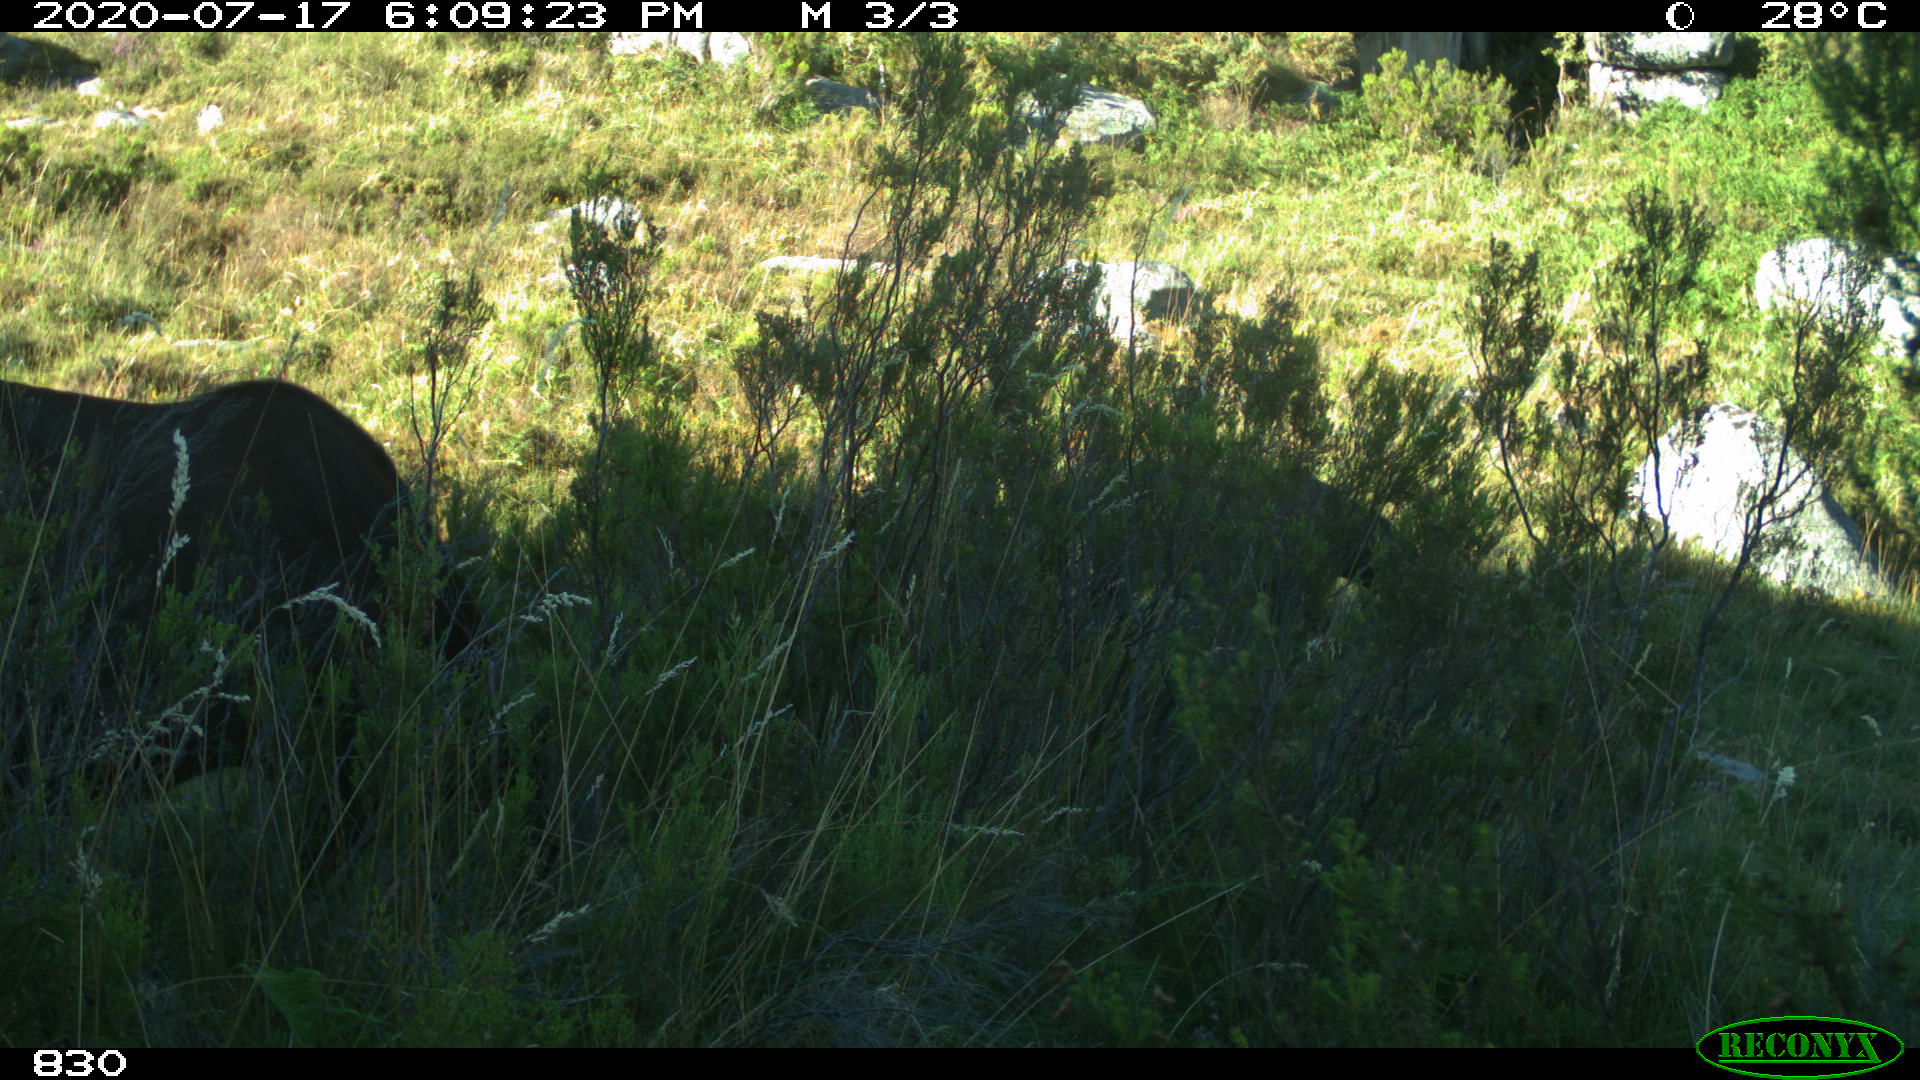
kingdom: Animalia
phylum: Chordata
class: Mammalia
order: Perissodactyla
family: Equidae
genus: Equus
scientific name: Equus caballus
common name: Horse
